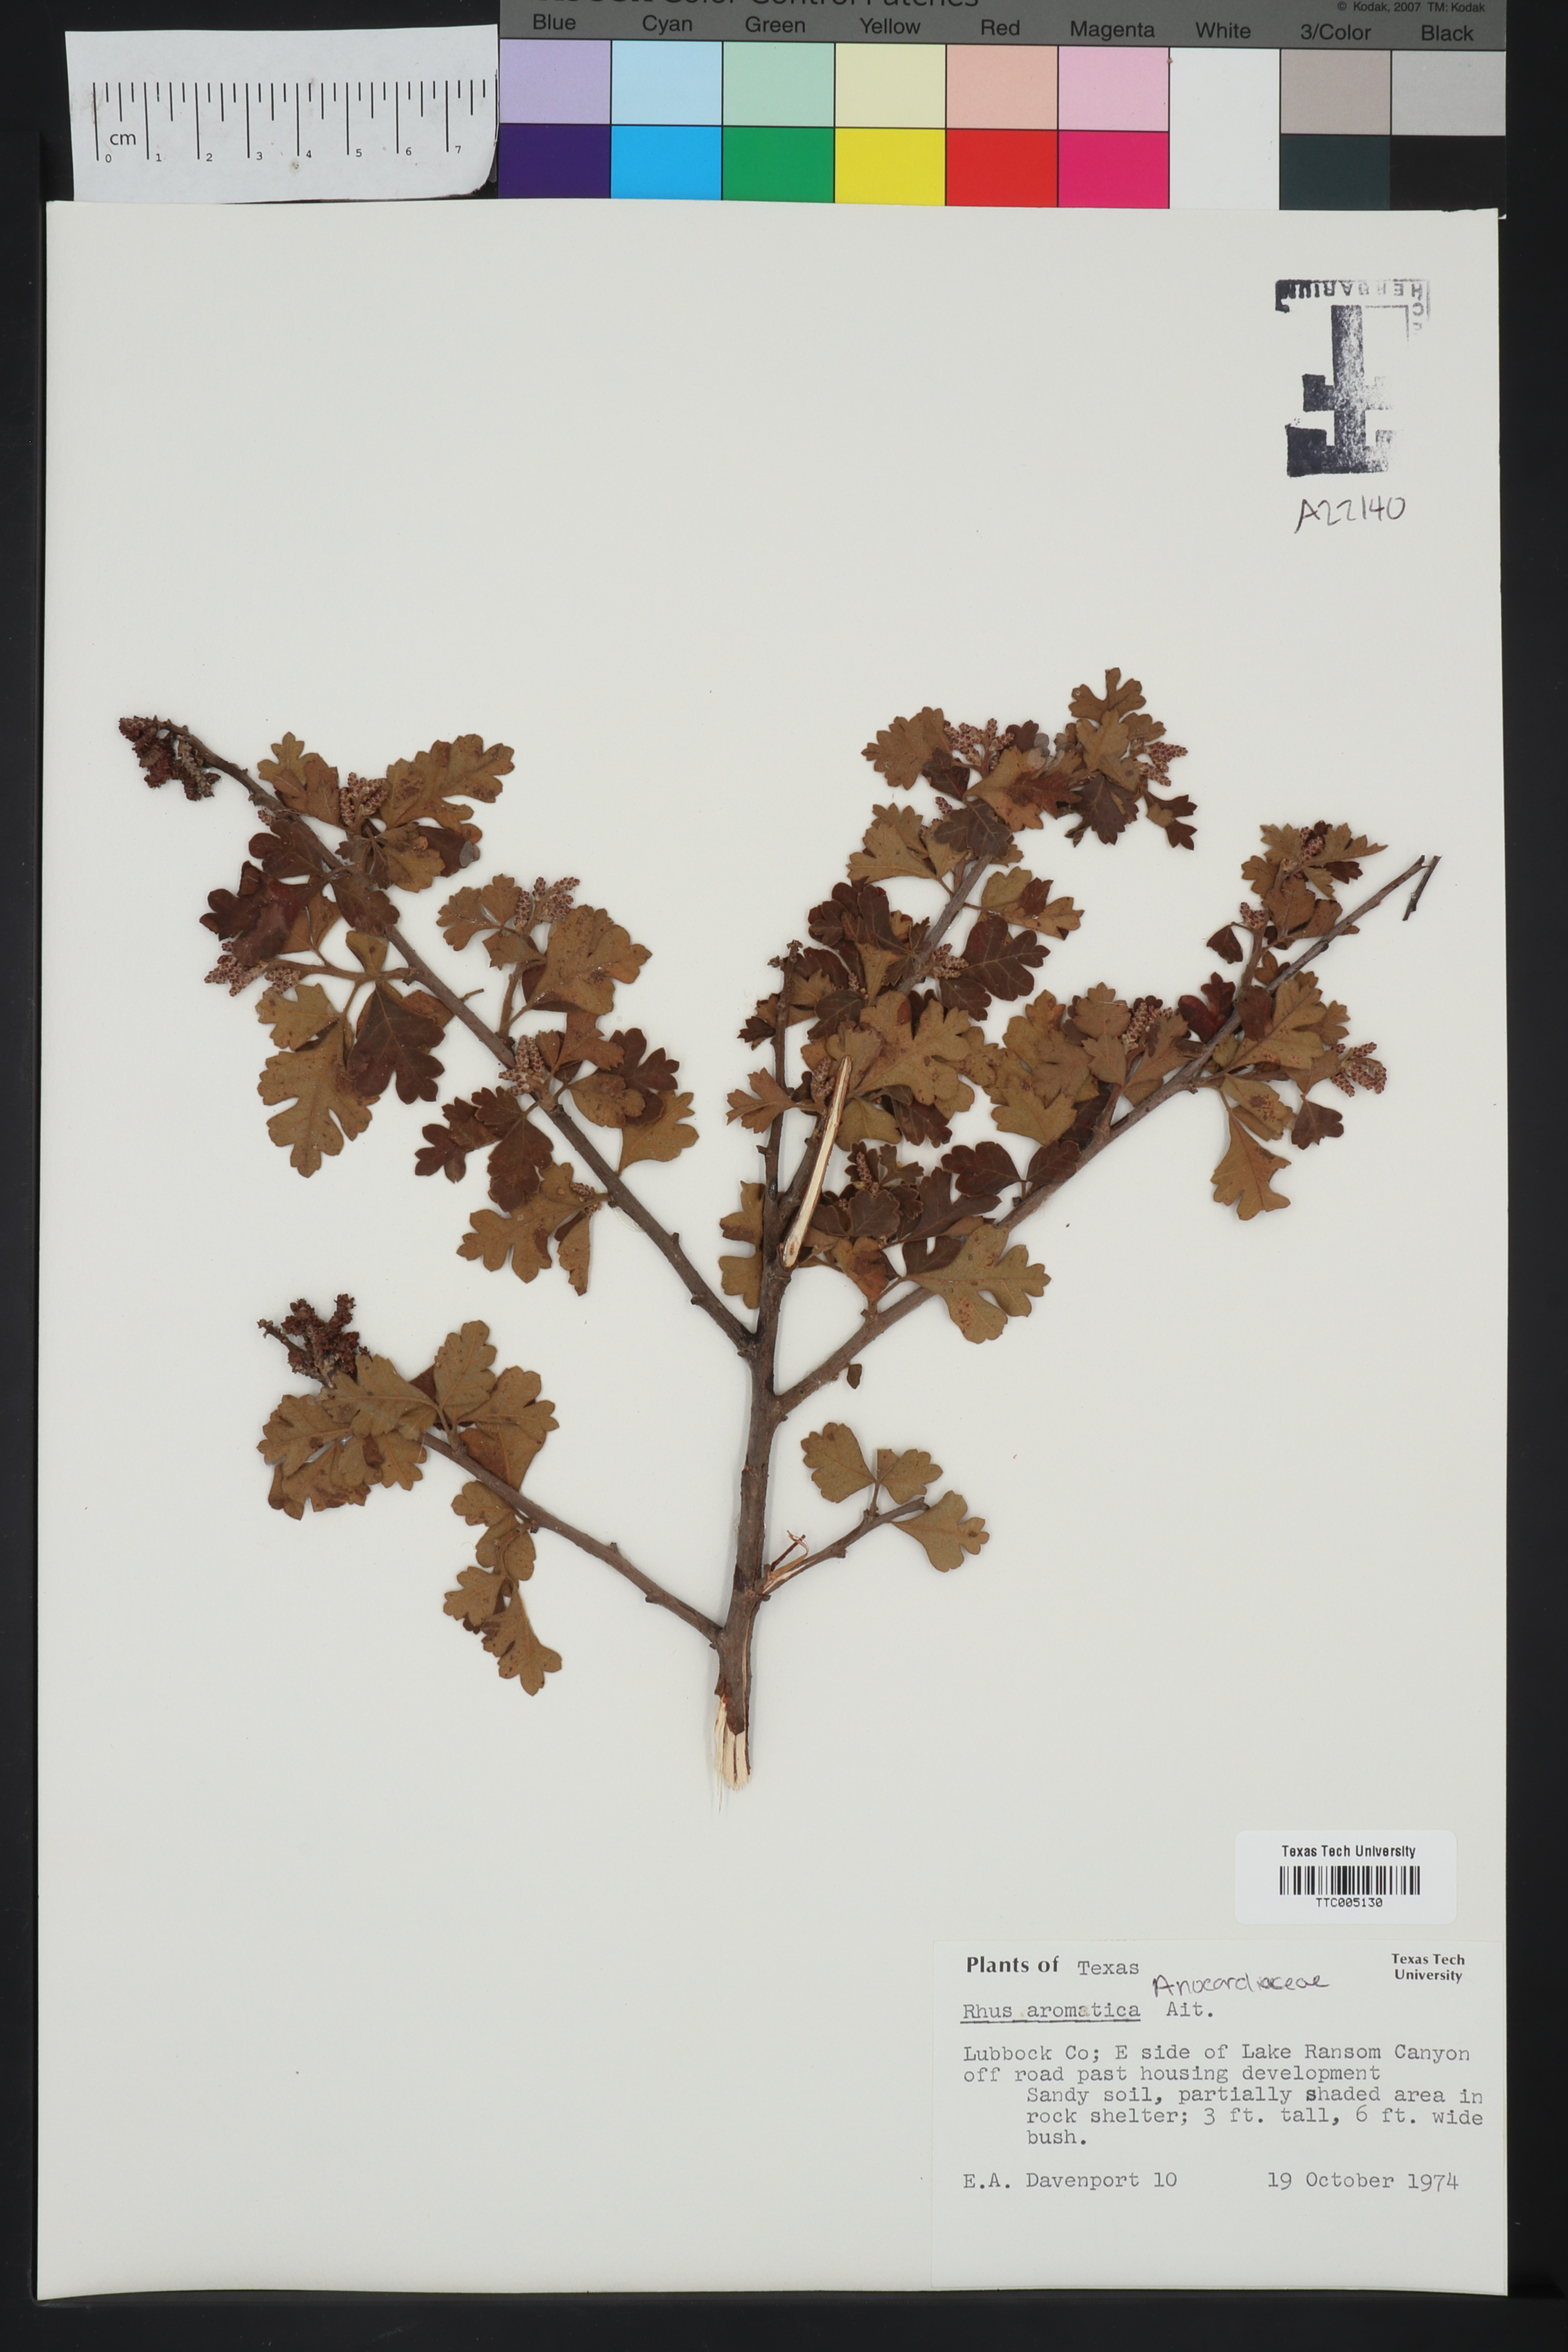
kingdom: Plantae
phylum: Tracheophyta
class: Magnoliopsida
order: Sapindales
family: Anacardiaceae
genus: Rhus
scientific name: Rhus aromatica
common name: Aromatic sumac
